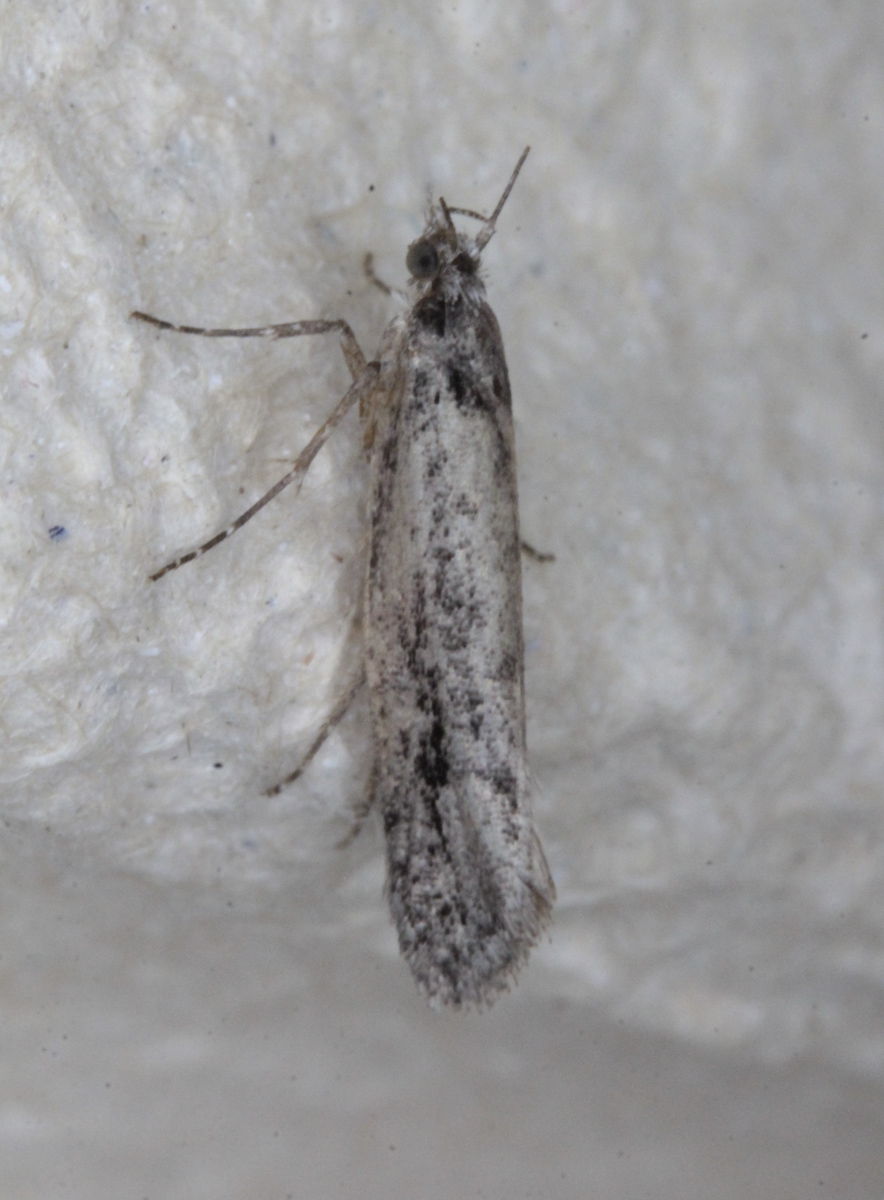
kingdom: Animalia
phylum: Arthropoda
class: Insecta
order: Lepidoptera
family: Ypsolophidae
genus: Ypsolopha
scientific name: Ypsolopha
